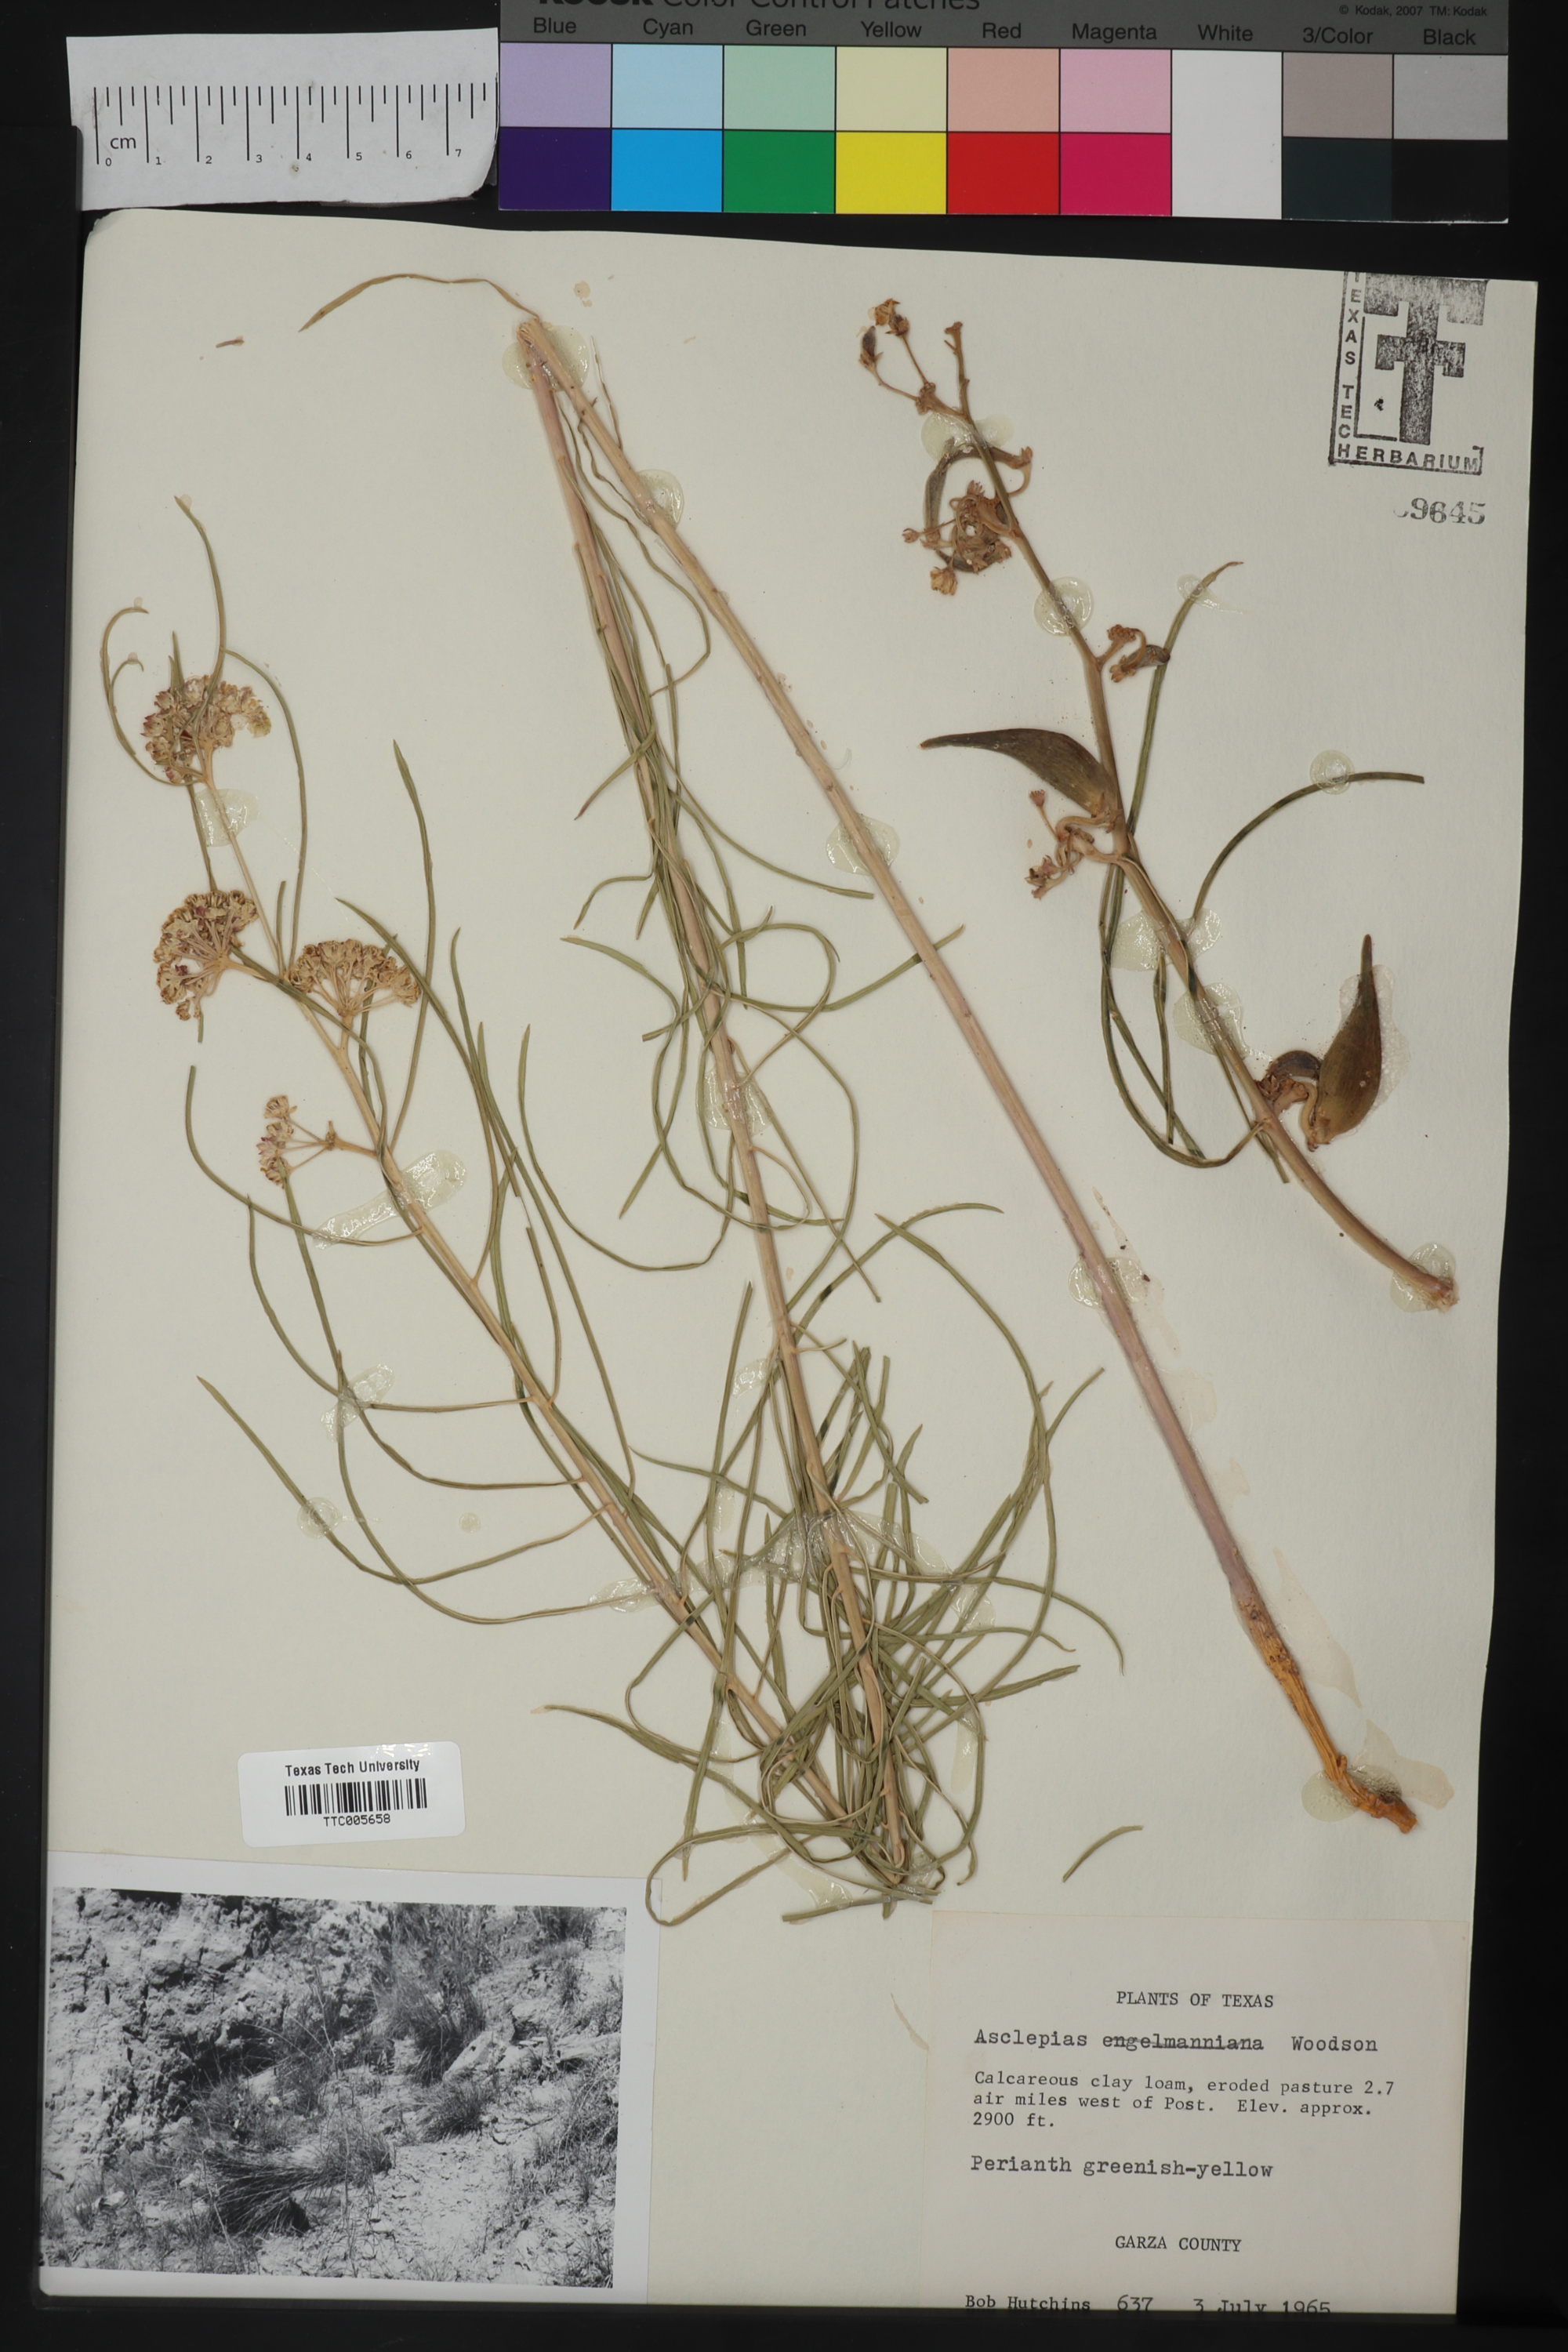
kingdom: Plantae
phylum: Tracheophyta
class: Magnoliopsida
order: Gentianales
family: Apocynaceae
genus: Asclepias
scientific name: Asclepias engelmanniana
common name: Engelmann's milkweed
